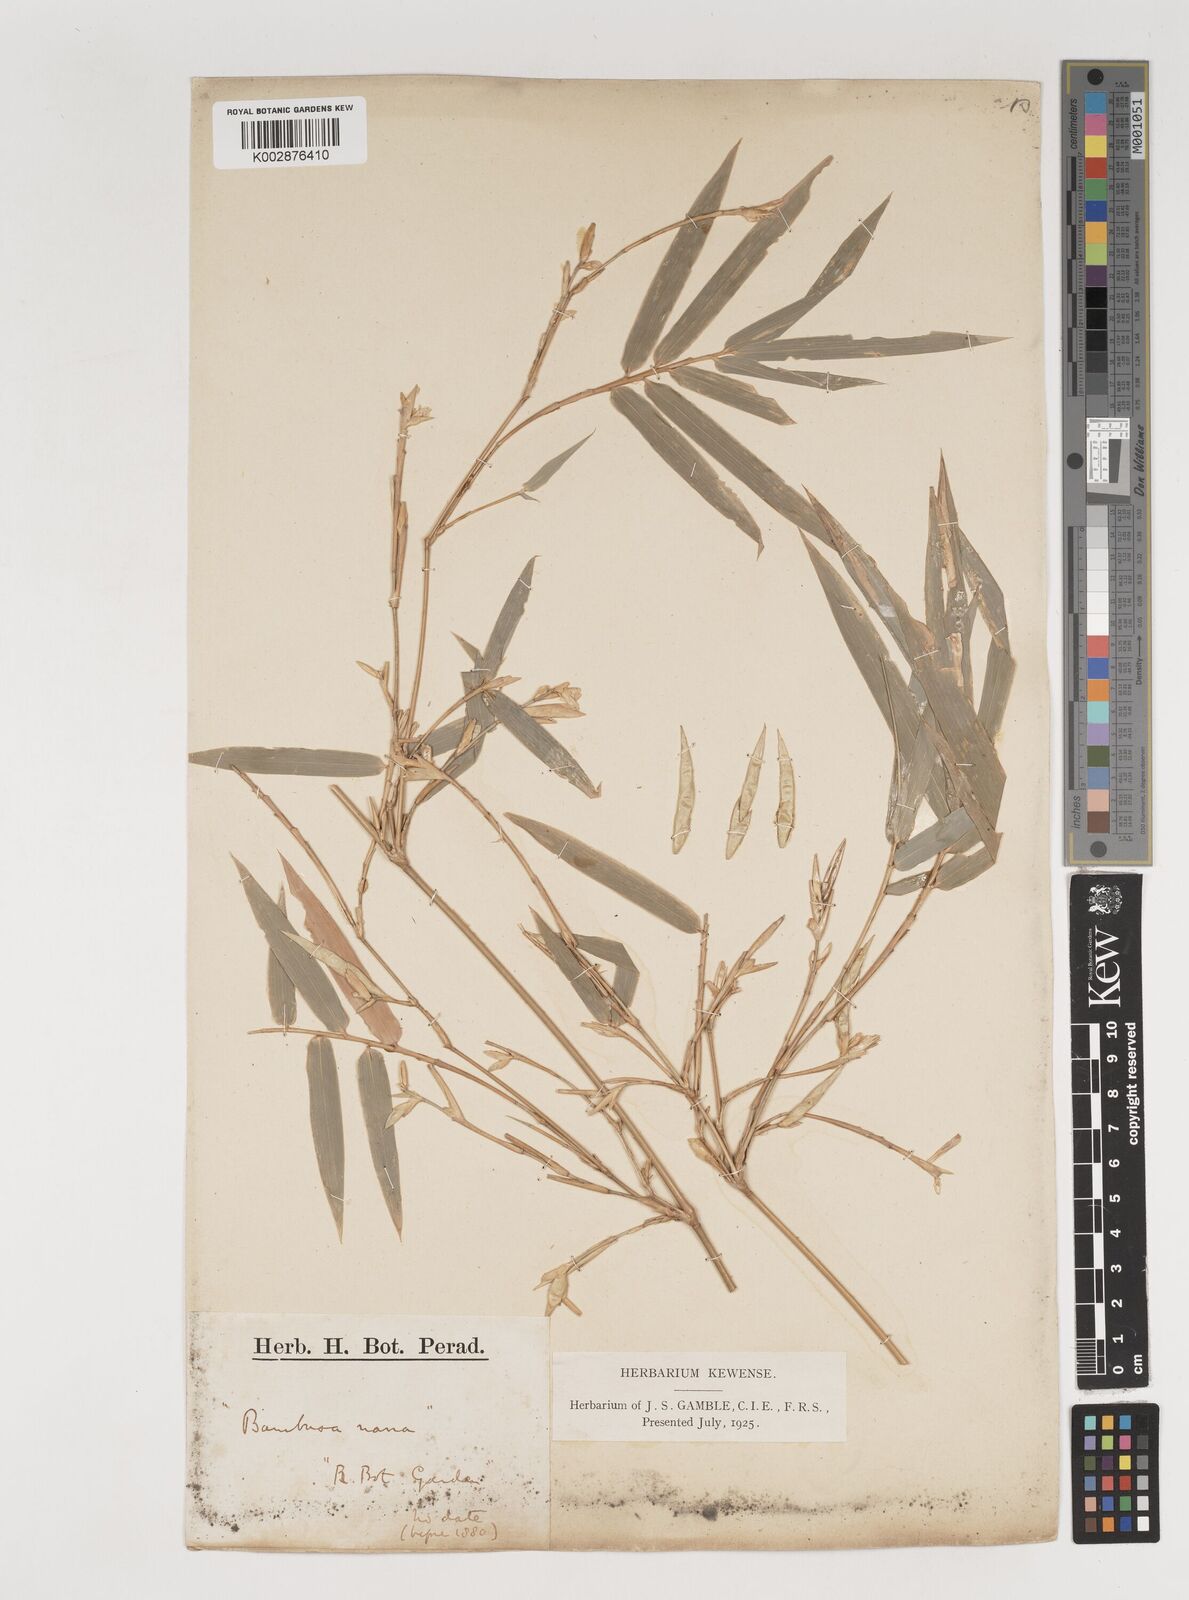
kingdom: Plantae
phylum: Tracheophyta
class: Liliopsida
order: Poales
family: Poaceae
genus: Bambusa
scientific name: Bambusa multiplex
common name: Hedge bamboo
